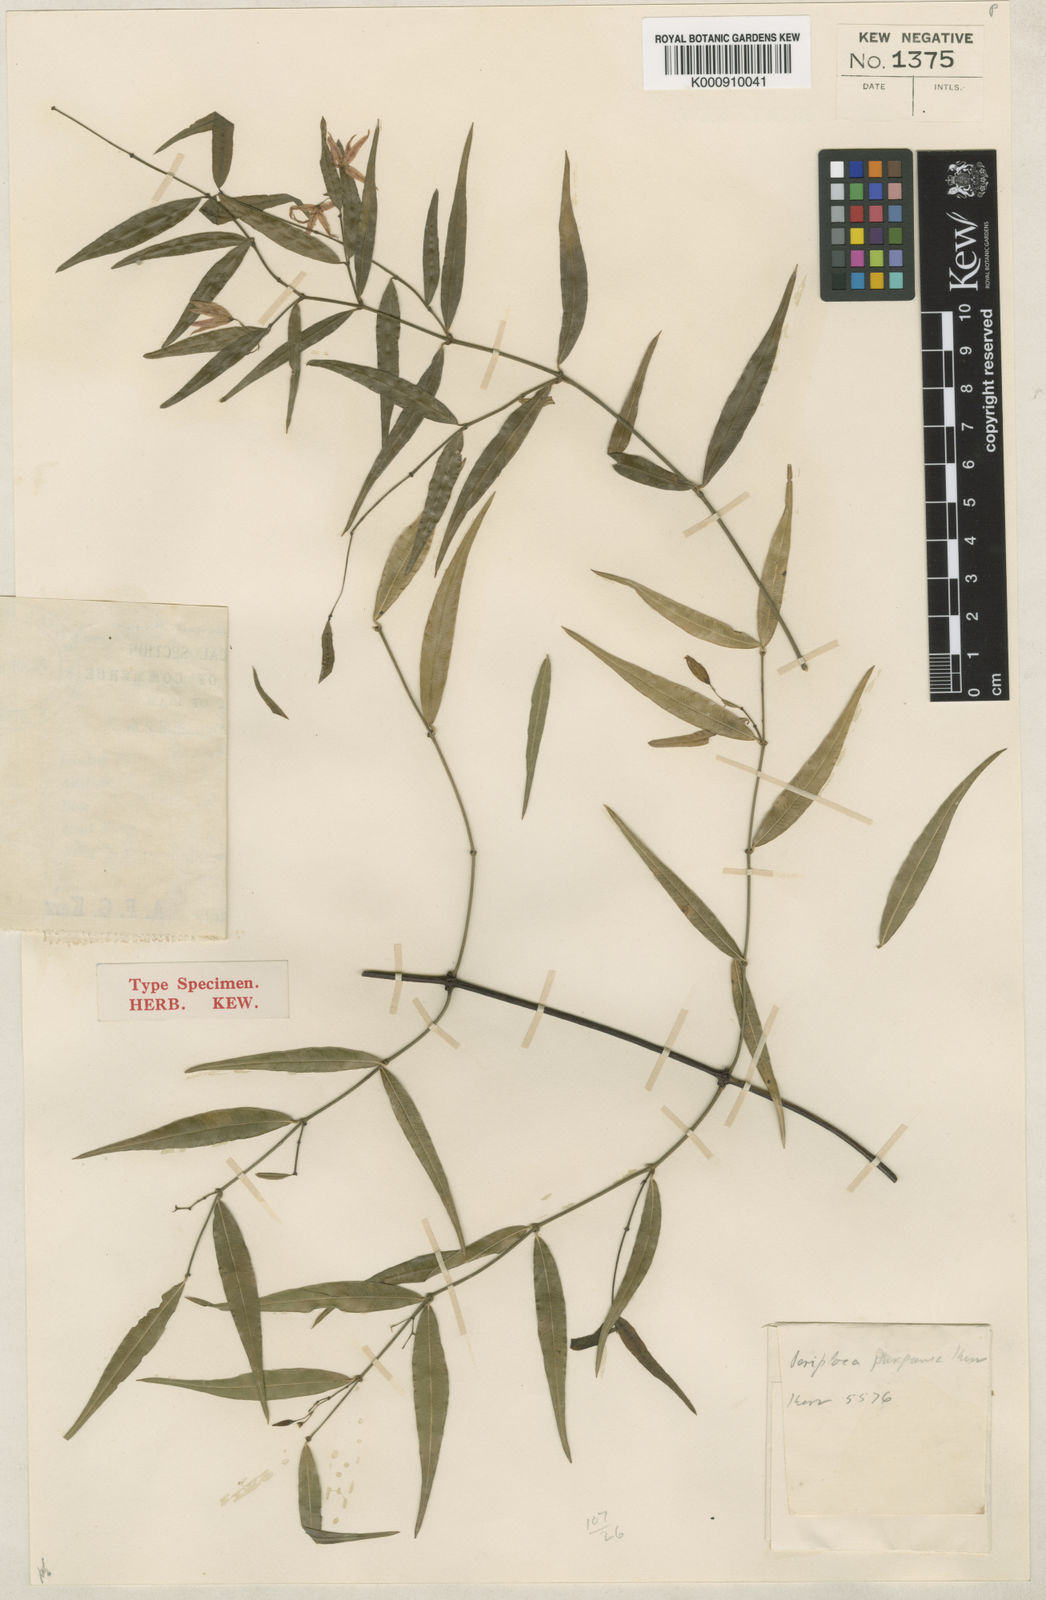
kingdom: Plantae
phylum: Tracheophyta
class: Magnoliopsida
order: Gentianales
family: Apocynaceae
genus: Periploca
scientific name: Periploca purpurea
